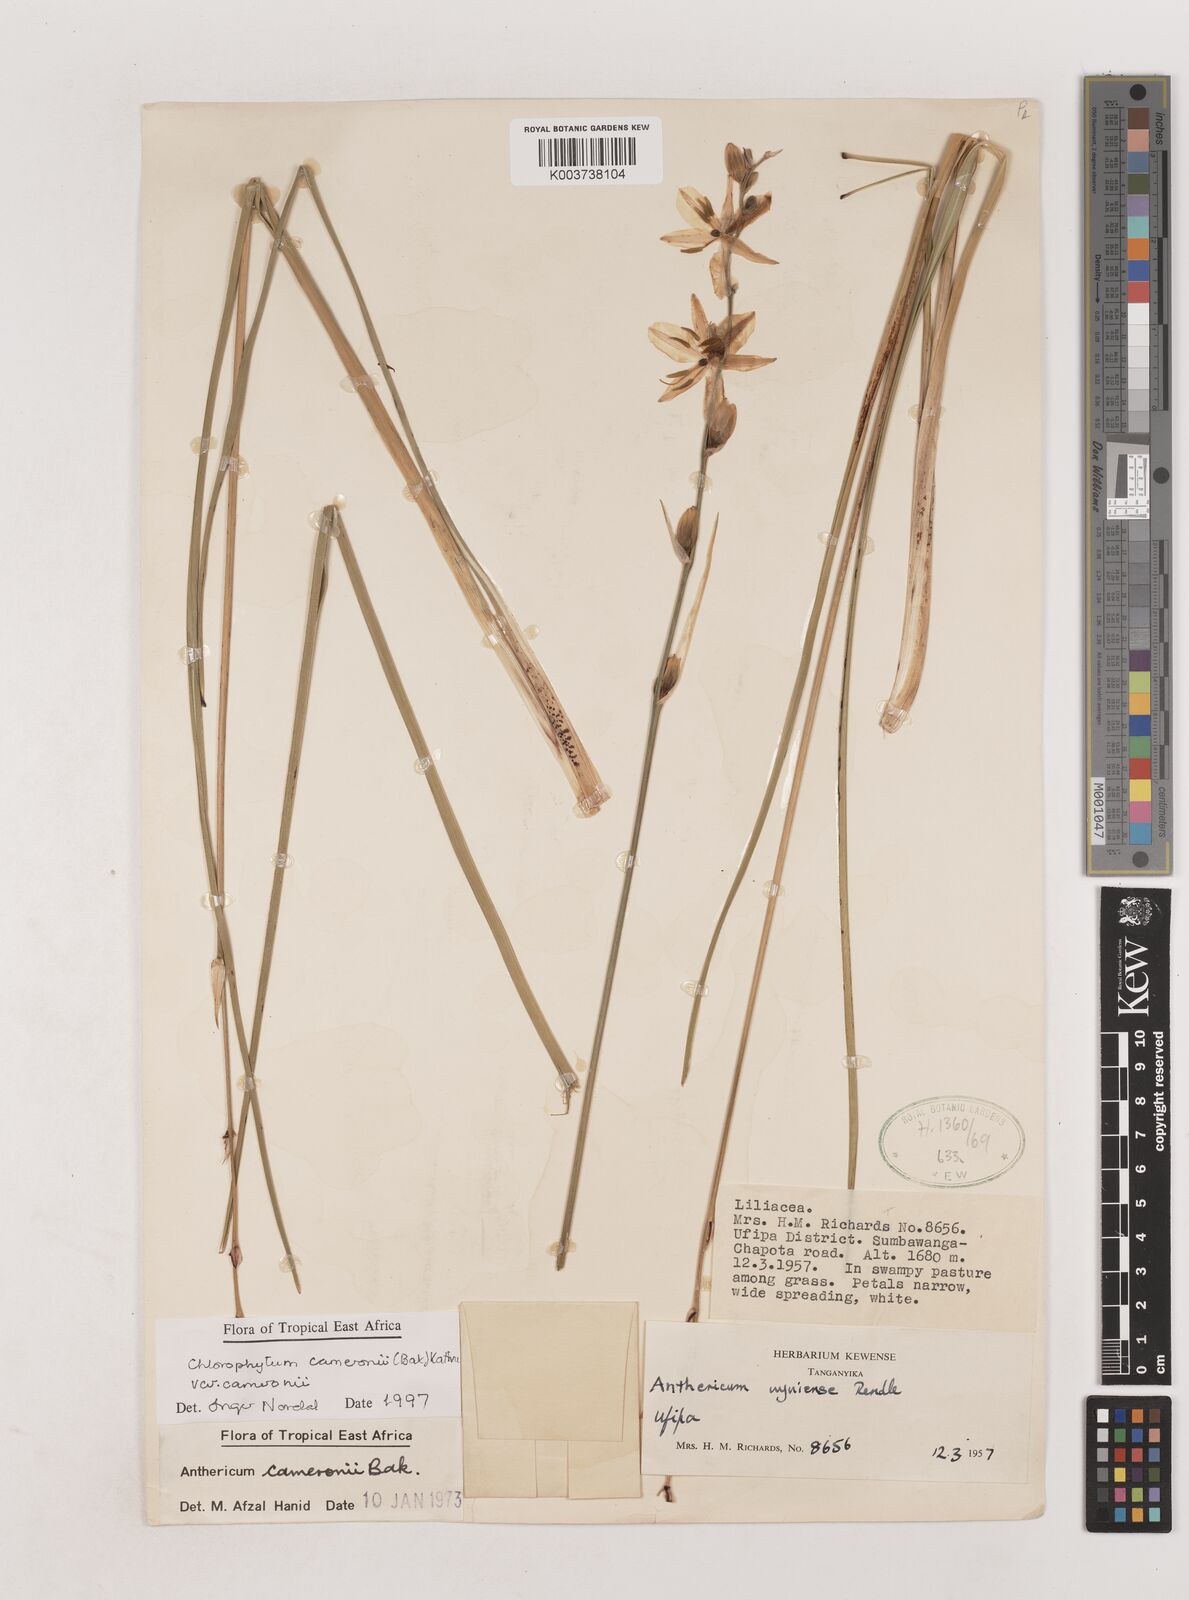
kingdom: Plantae
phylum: Tracheophyta
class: Liliopsida
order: Asparagales
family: Asparagaceae
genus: Chlorophytum
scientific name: Chlorophytum cameronii
